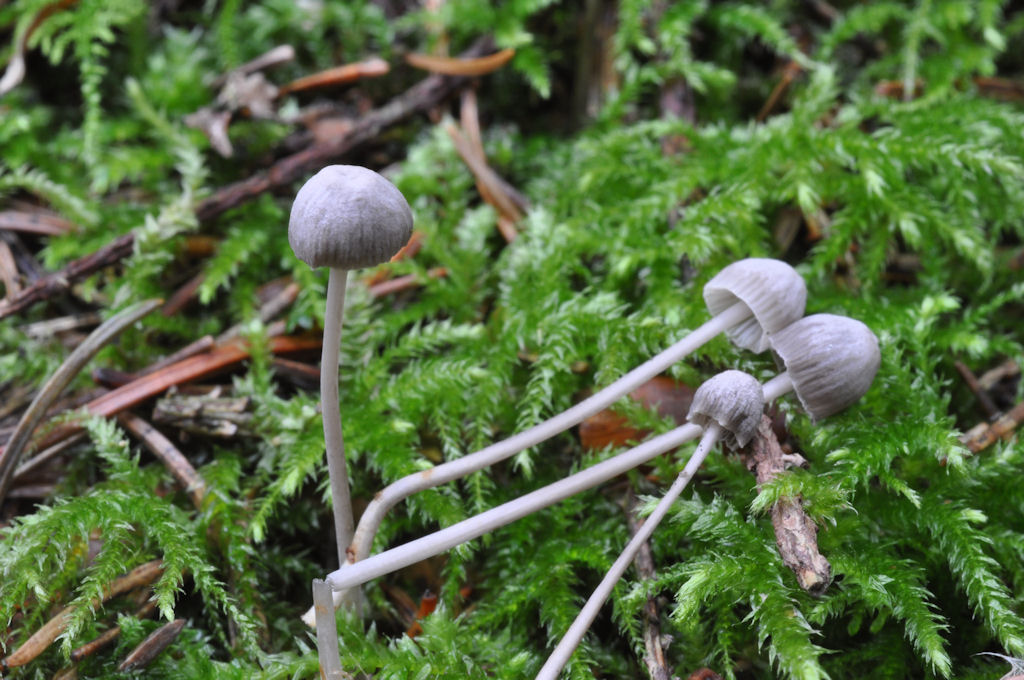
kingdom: Fungi
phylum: Basidiomycota
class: Agaricomycetes
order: Agaricales
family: Mycenaceae
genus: Mycena
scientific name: Mycena cinerella
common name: mel-huesvamp
